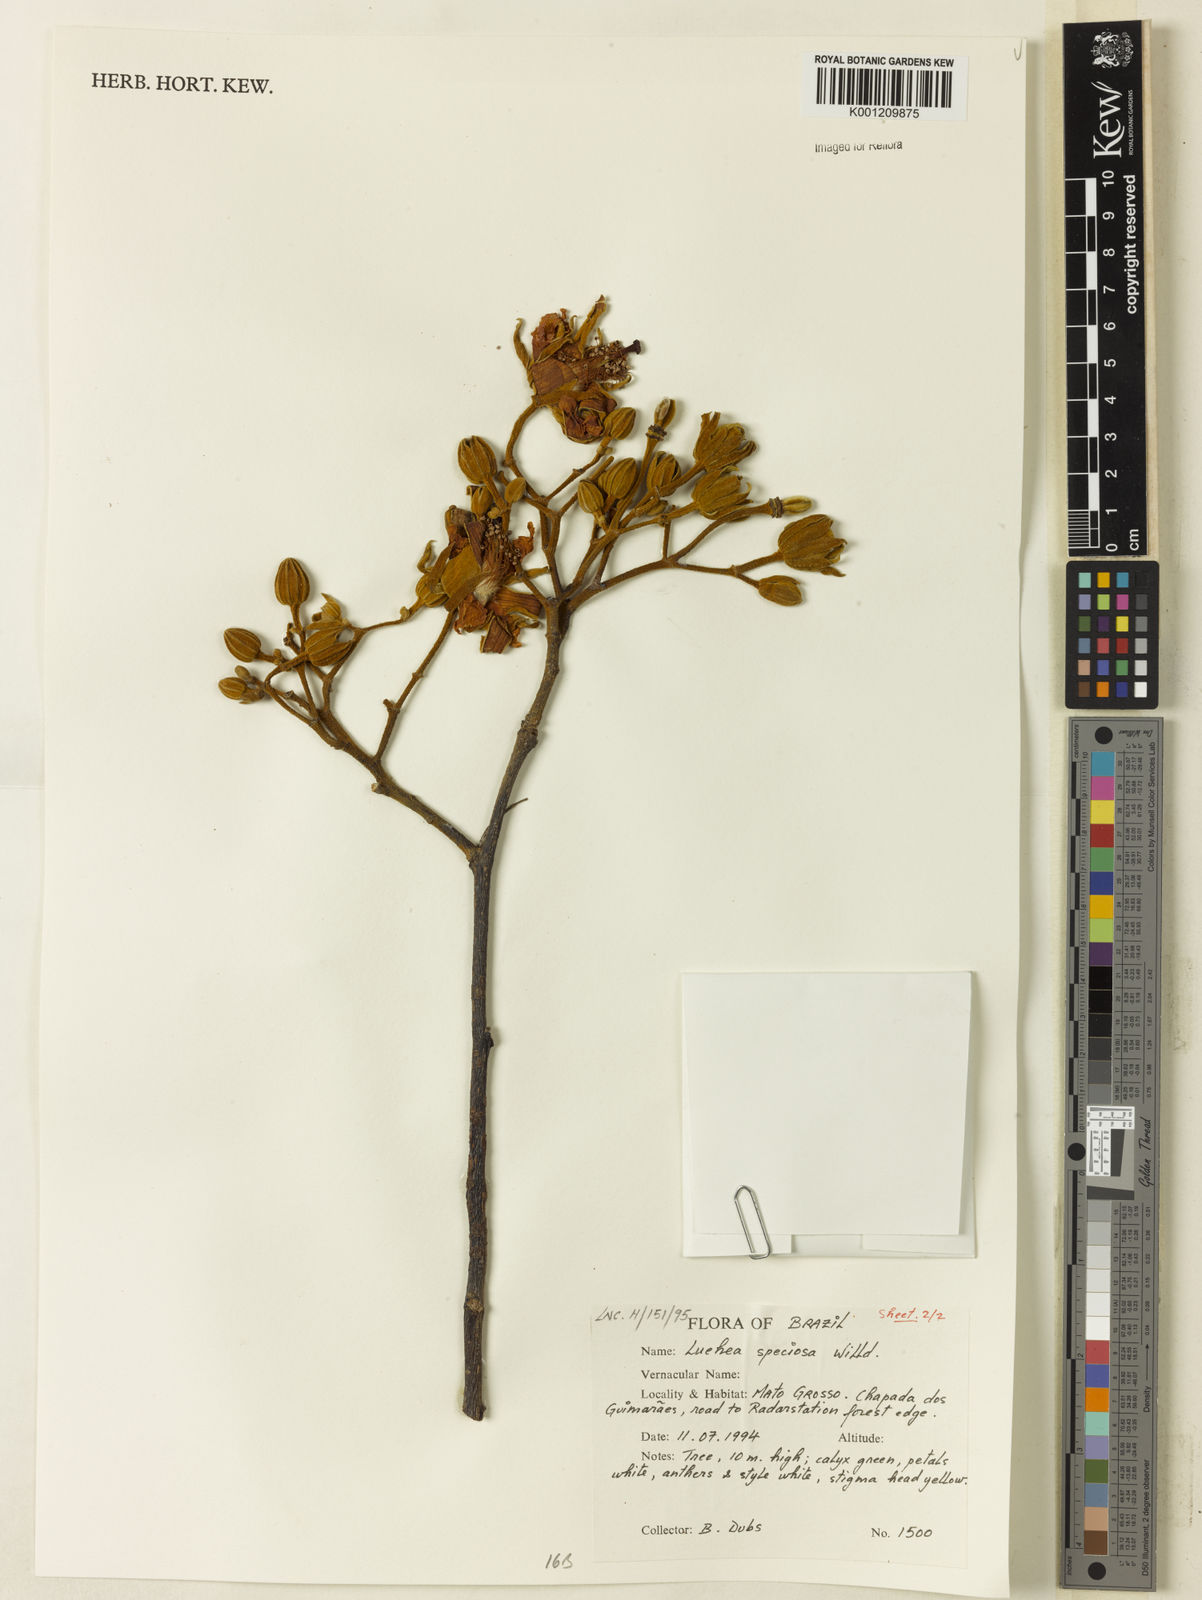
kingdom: Plantae
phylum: Tracheophyta
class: Magnoliopsida
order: Malvales
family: Malvaceae
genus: Luehea
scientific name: Luehea speciosa
